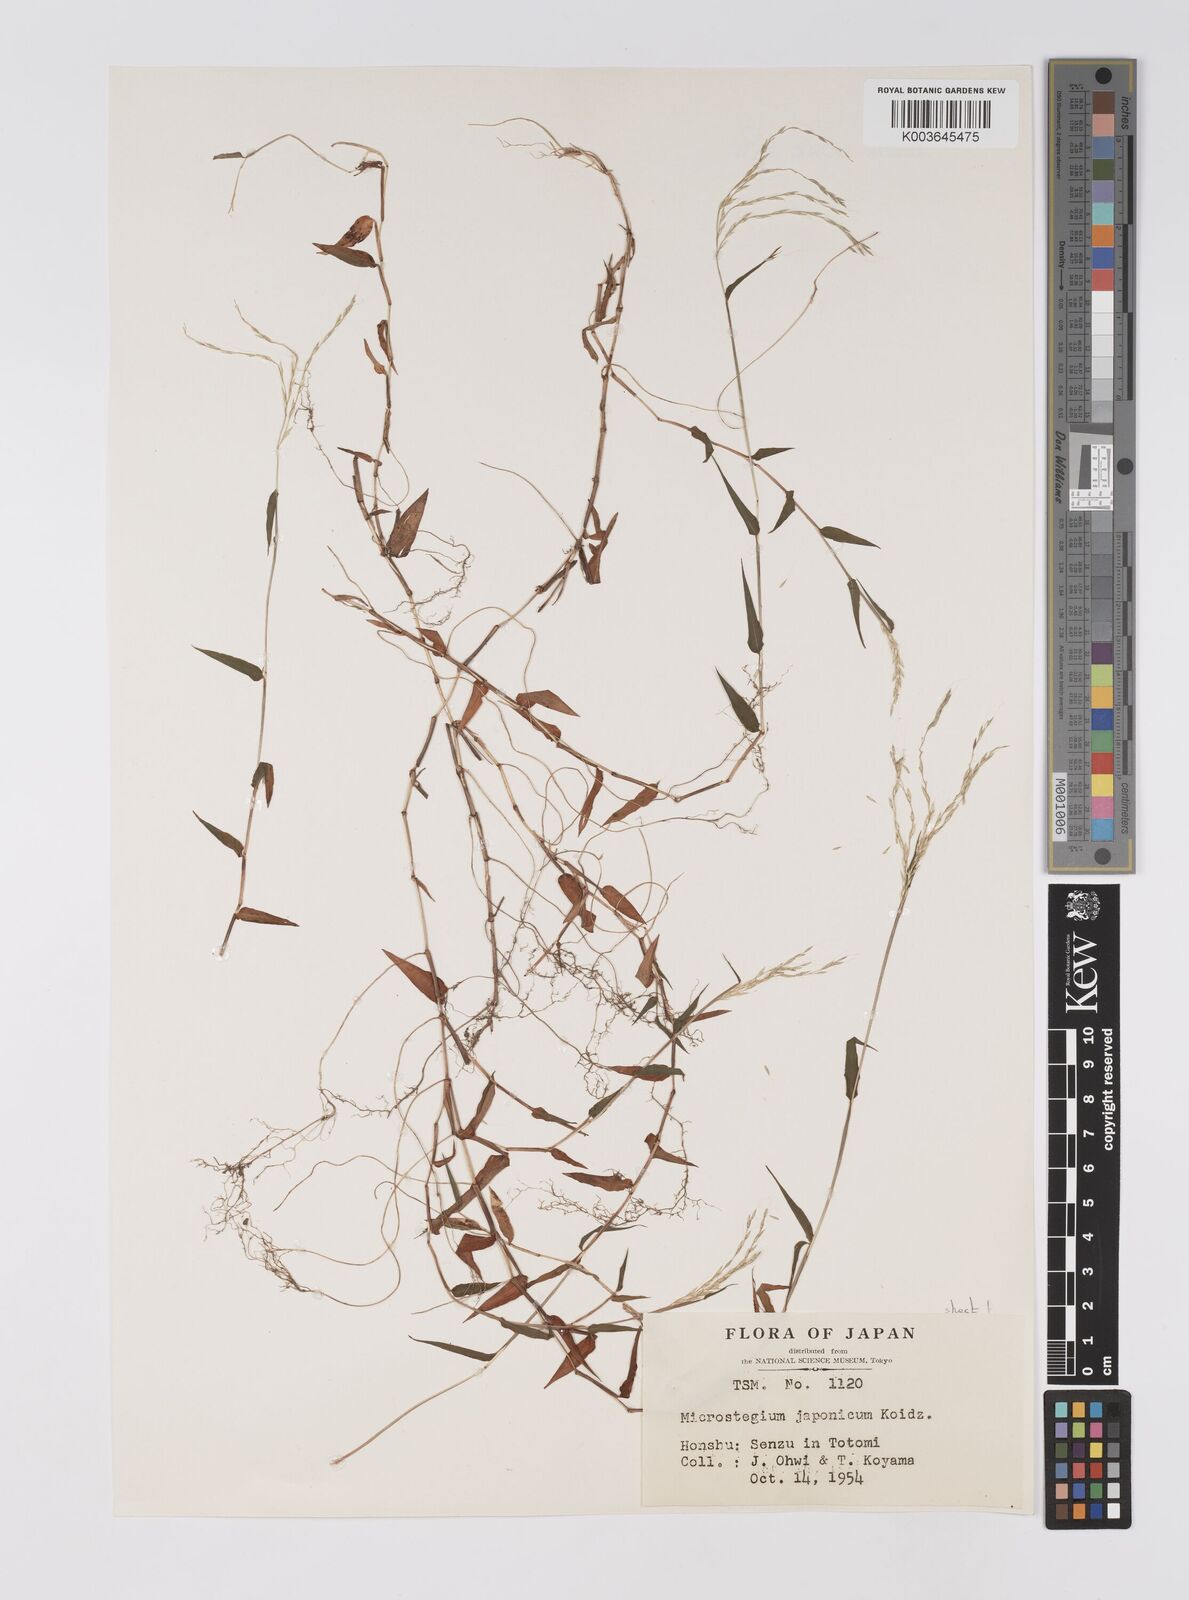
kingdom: Plantae
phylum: Tracheophyta
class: Liliopsida
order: Poales
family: Poaceae
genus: Microstegium
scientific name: Microstegium japonicum
